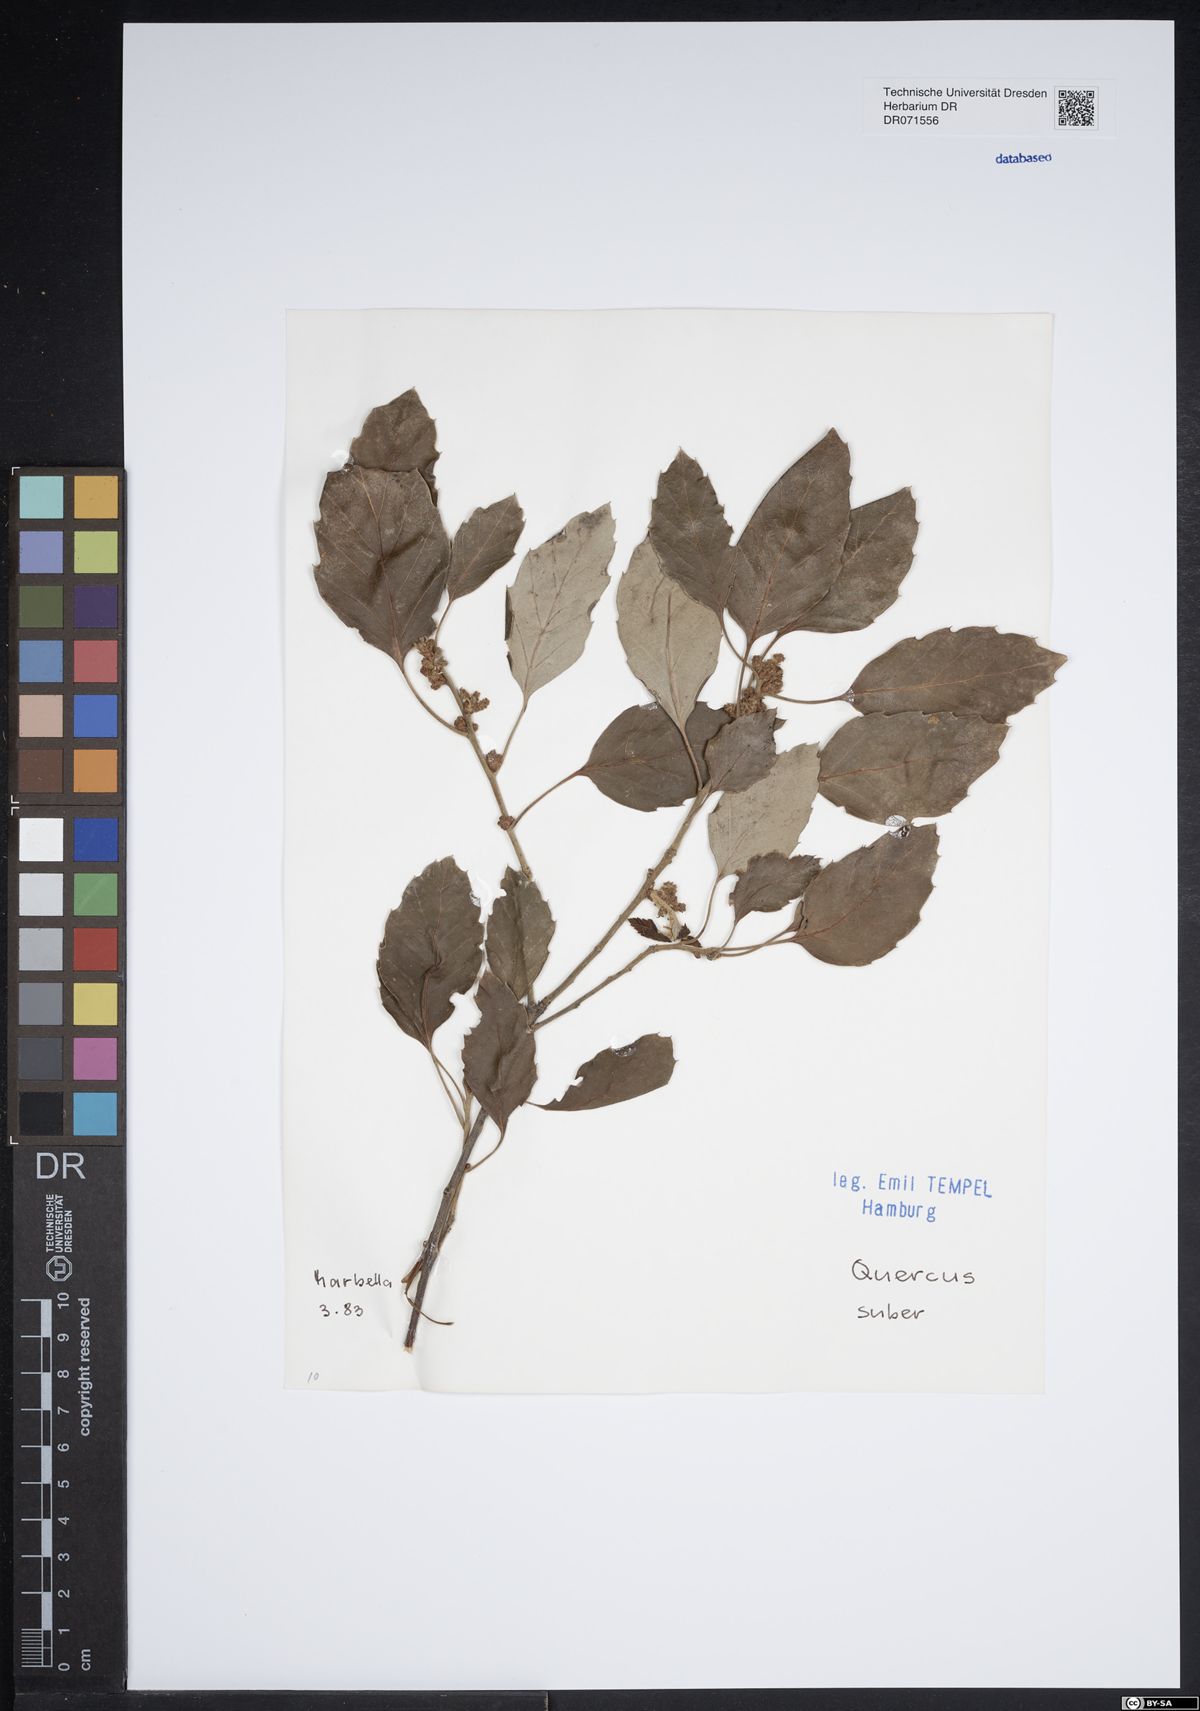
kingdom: Plantae
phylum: Tracheophyta
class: Magnoliopsida
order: Fagales
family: Fagaceae
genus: Quercus
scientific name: Quercus suber
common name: Cork oak
